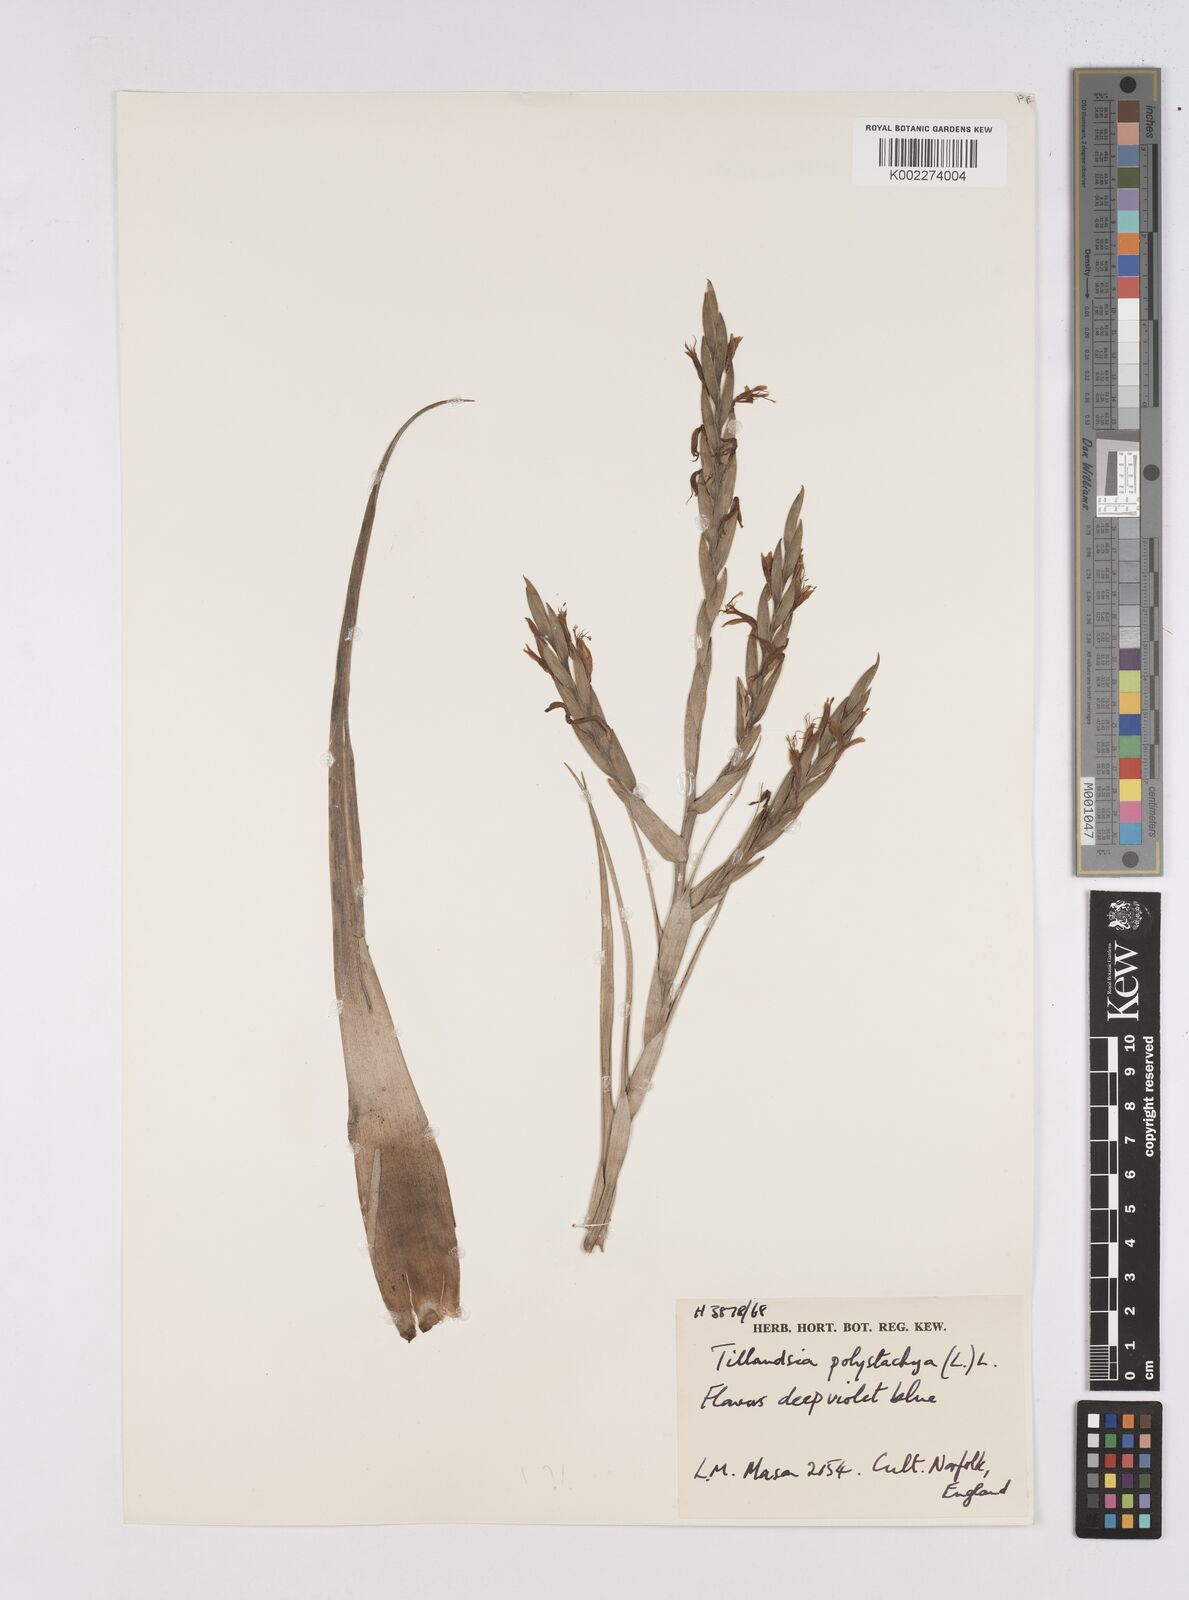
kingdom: Plantae
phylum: Tracheophyta
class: Liliopsida
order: Poales
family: Bromeliaceae
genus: Tillandsia
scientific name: Tillandsia polystachia
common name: Airplant
